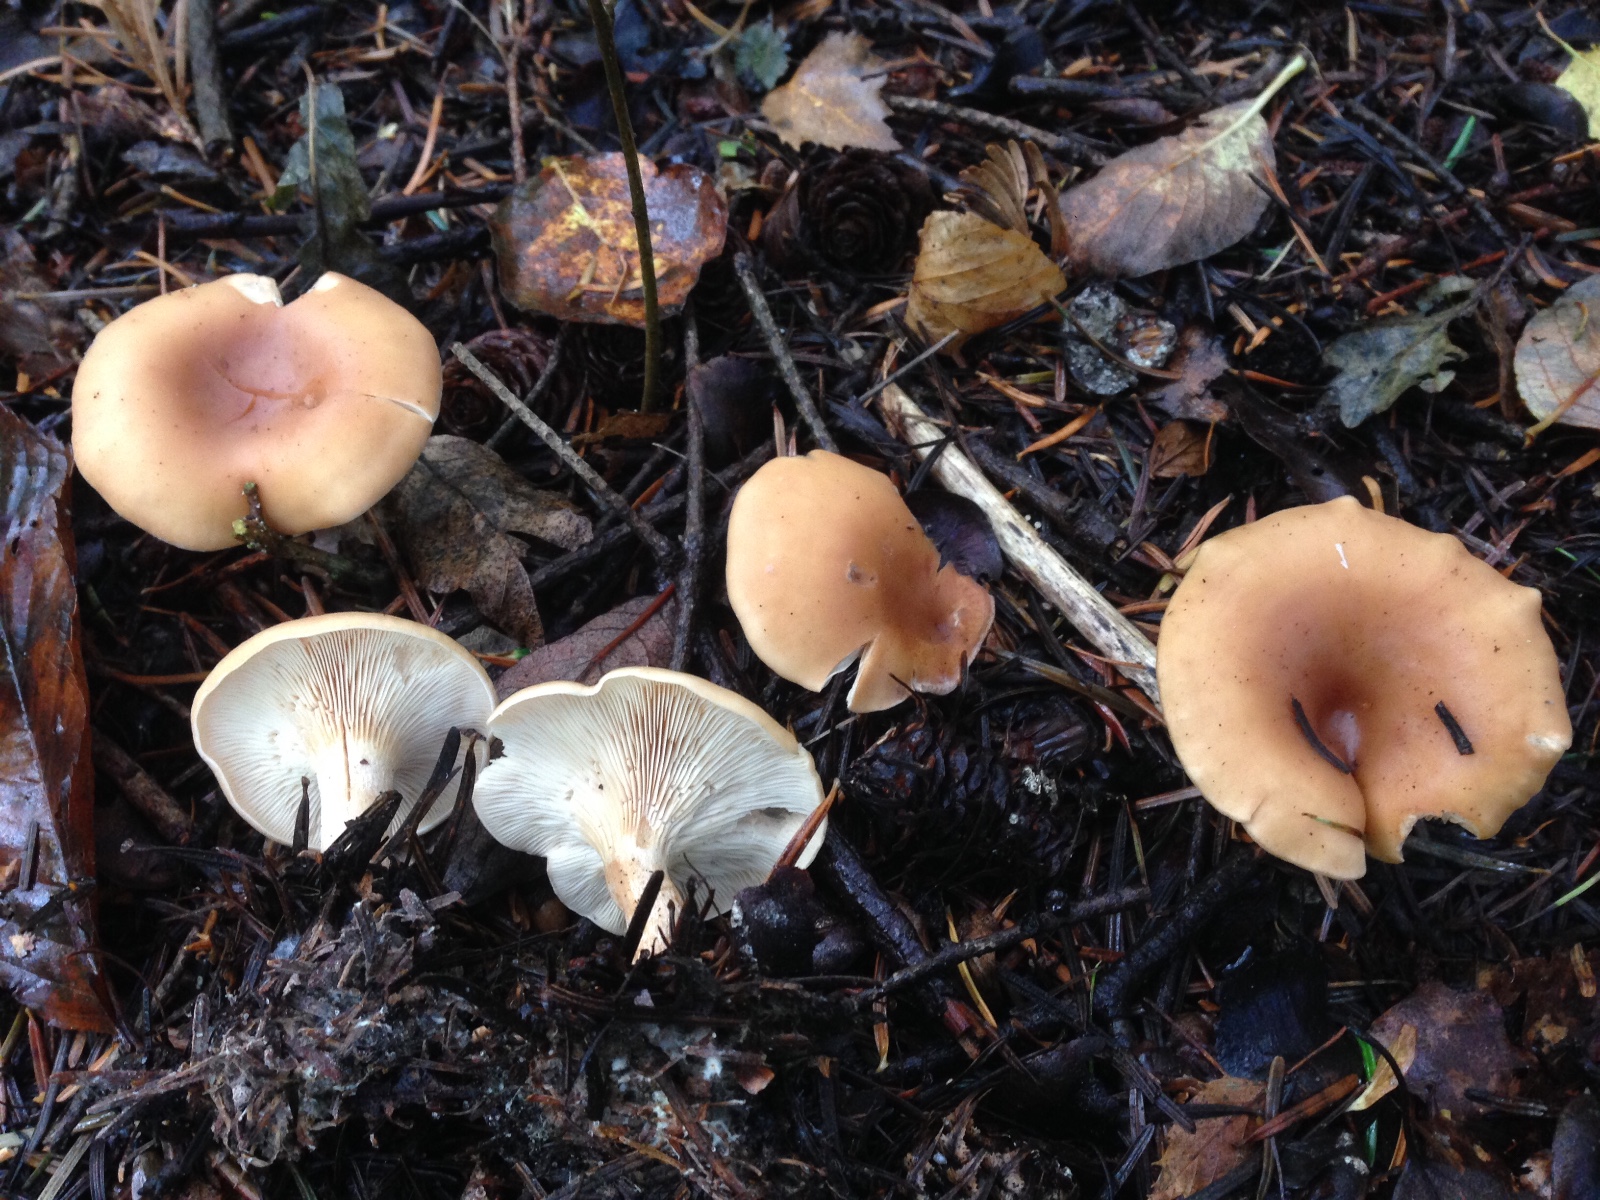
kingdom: Fungi
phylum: Basidiomycota
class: Agaricomycetes
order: Agaricales
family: Tricholomataceae
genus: Paralepista
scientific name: Paralepista flaccida
